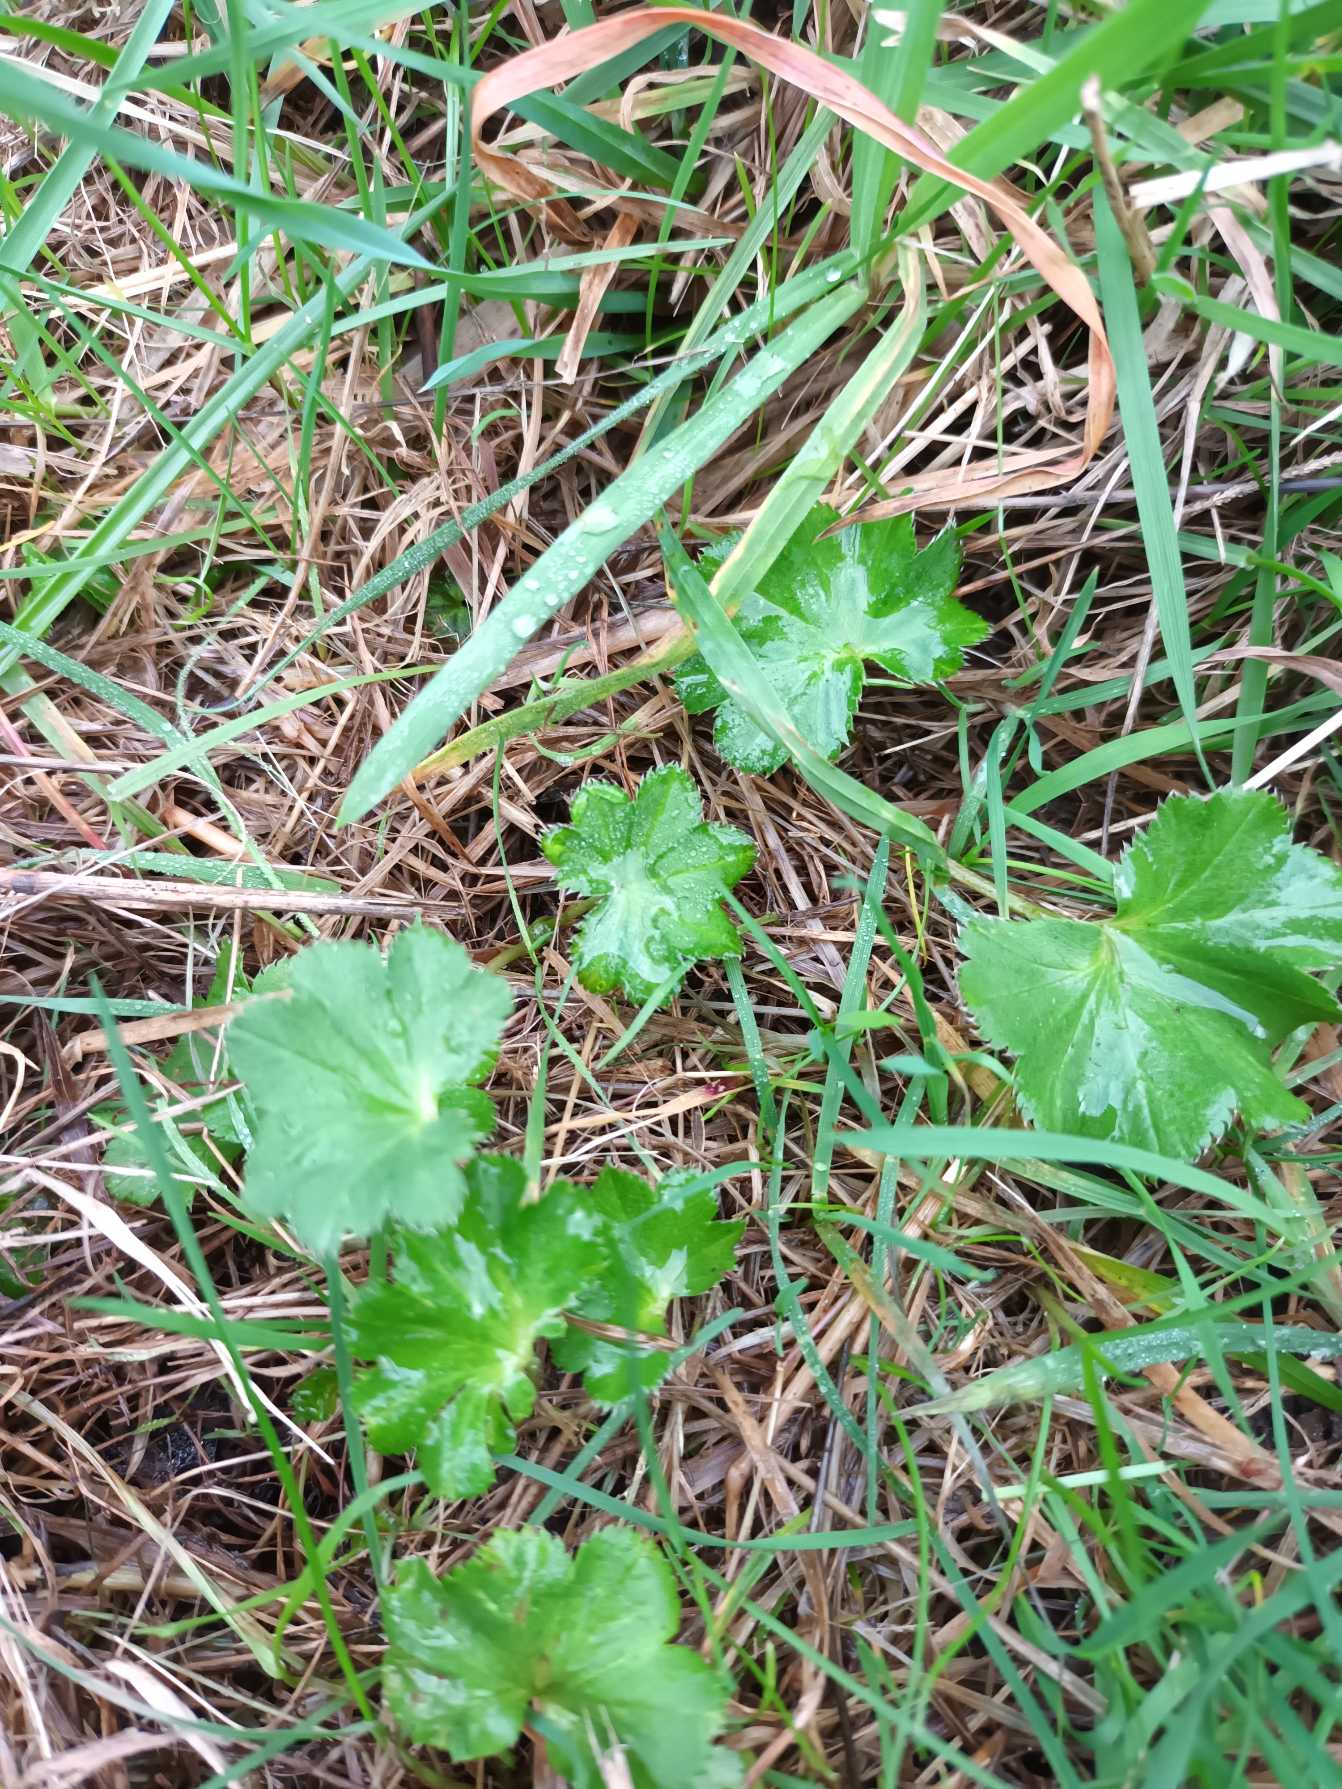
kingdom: Plantae
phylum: Tracheophyta
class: Magnoliopsida
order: Rosales
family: Rosaceae
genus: Alchemilla
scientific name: Alchemilla glabra
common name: Glat løvefod
